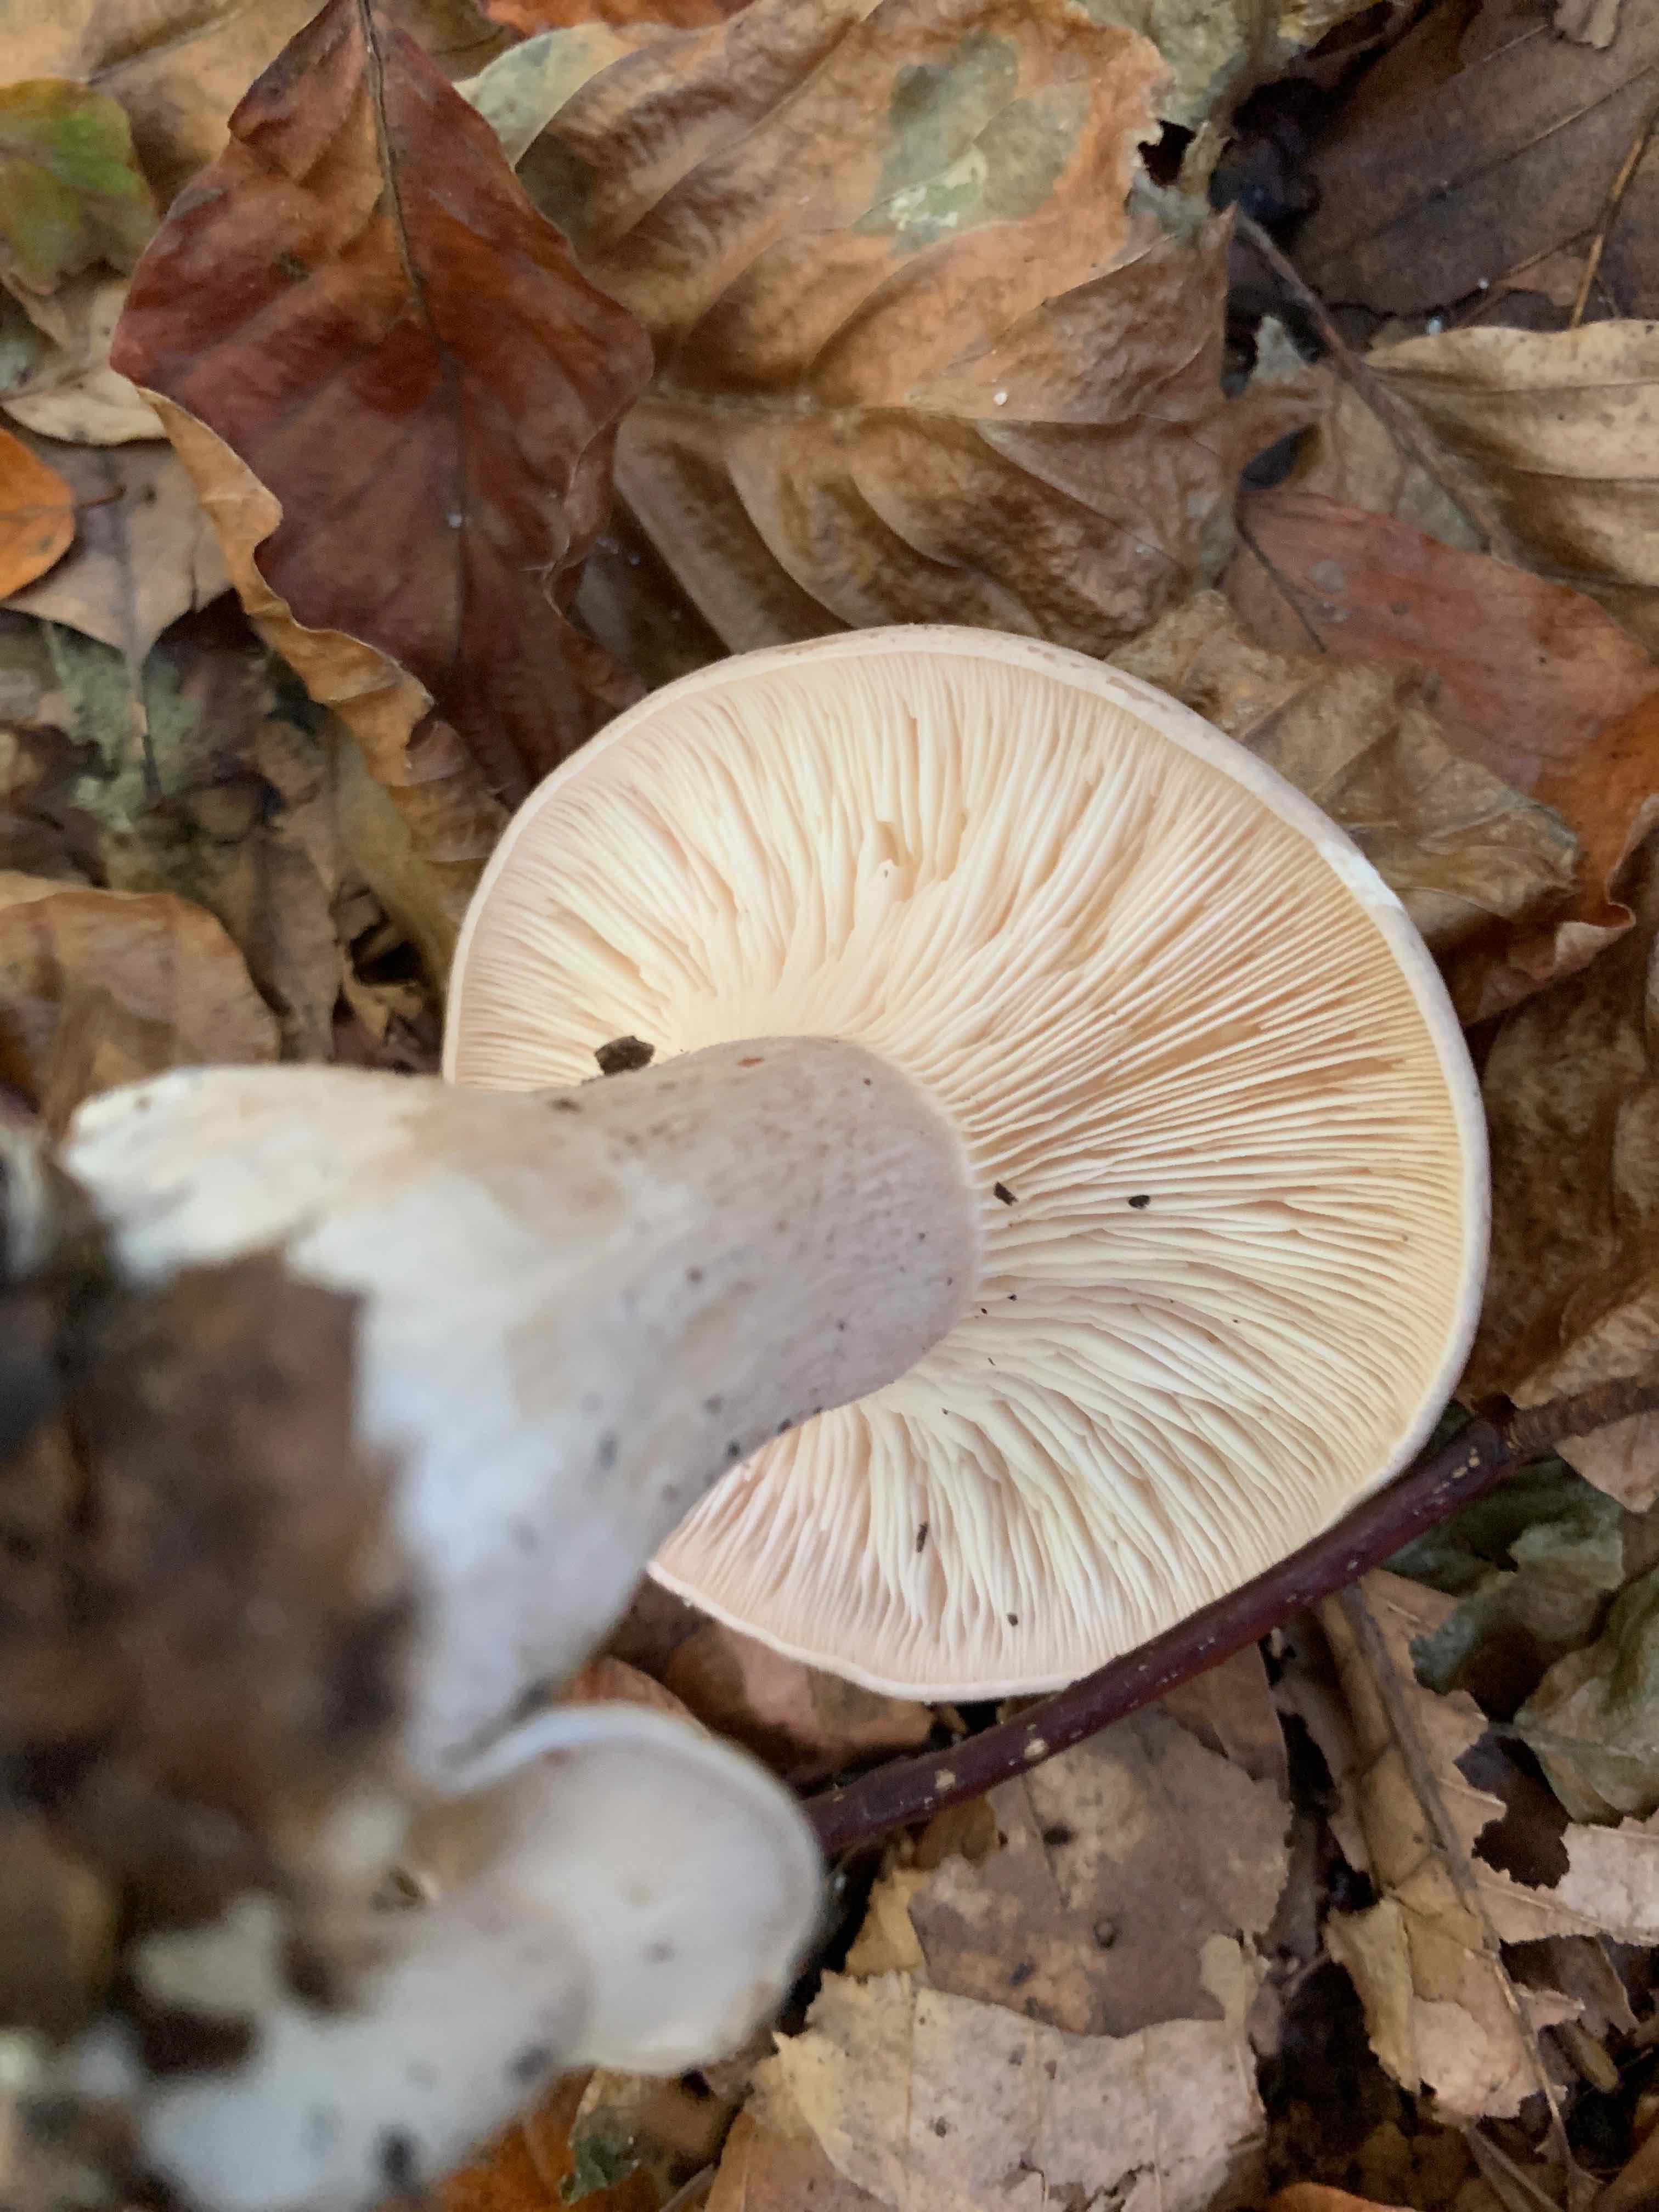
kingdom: Fungi
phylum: Basidiomycota
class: Agaricomycetes
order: Agaricales
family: Tricholomataceae
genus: Clitocybe
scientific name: Clitocybe nebularis
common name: tåge-tragthat
